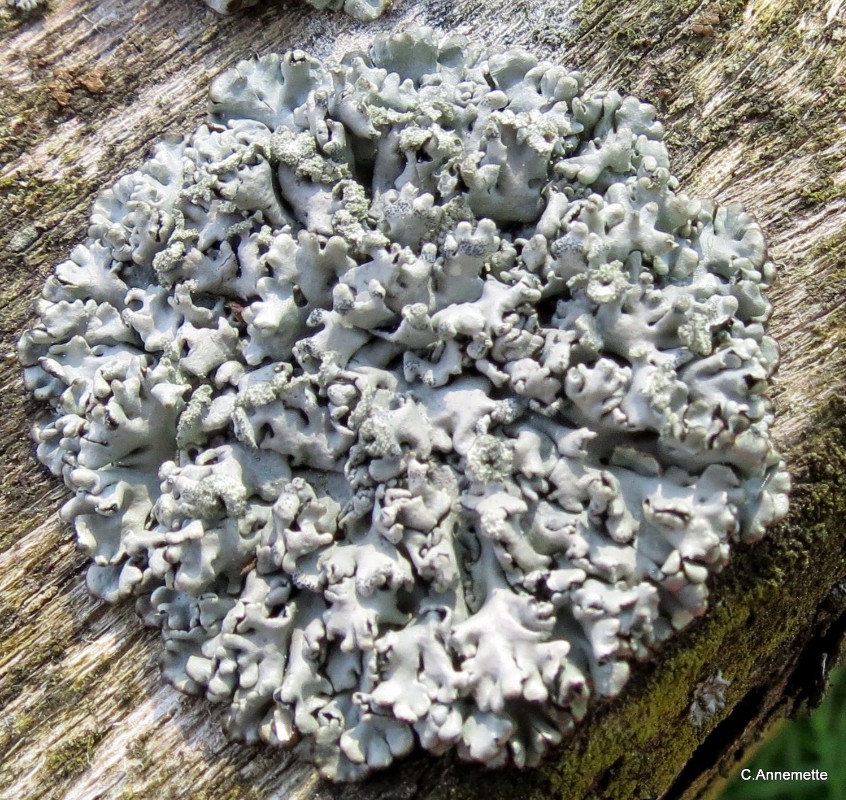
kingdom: Fungi
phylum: Ascomycota
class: Lecanoromycetes
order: Lecanorales
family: Parmeliaceae
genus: Hypogymnia
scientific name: Hypogymnia physodes
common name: almindelig kvistlav
